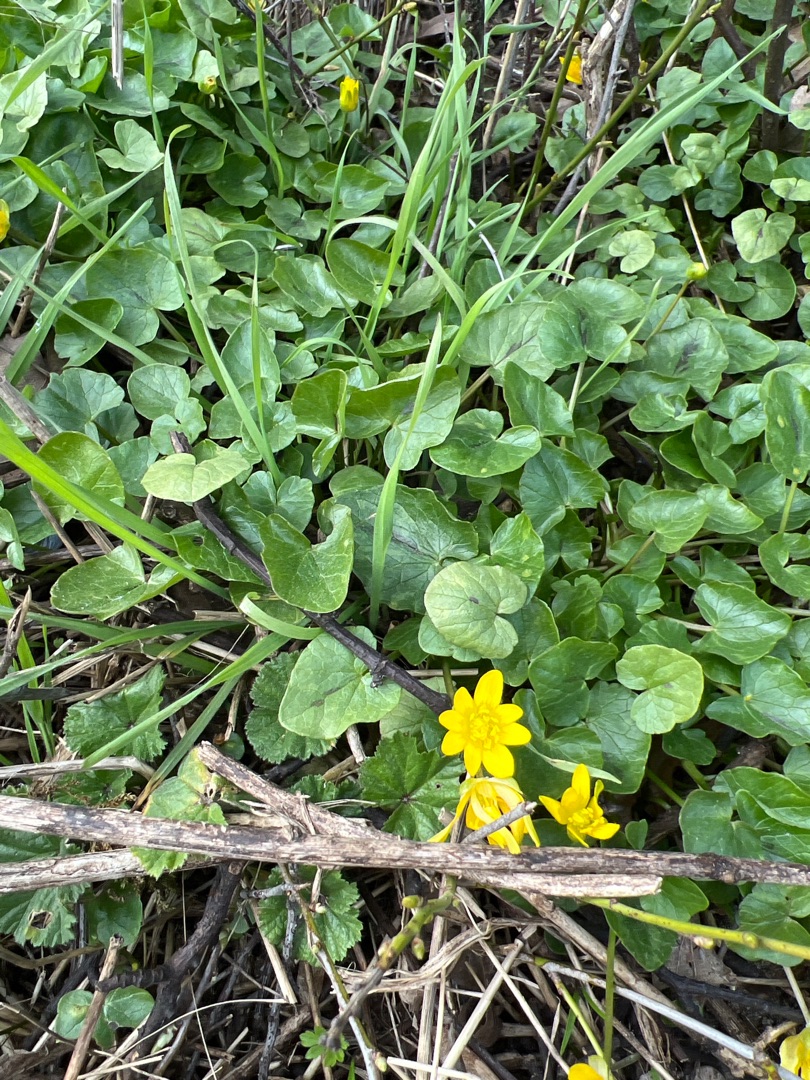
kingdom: Plantae
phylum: Tracheophyta
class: Magnoliopsida
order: Ranunculales
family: Ranunculaceae
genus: Ficaria
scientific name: Ficaria verna
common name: Almindelig vorterod
